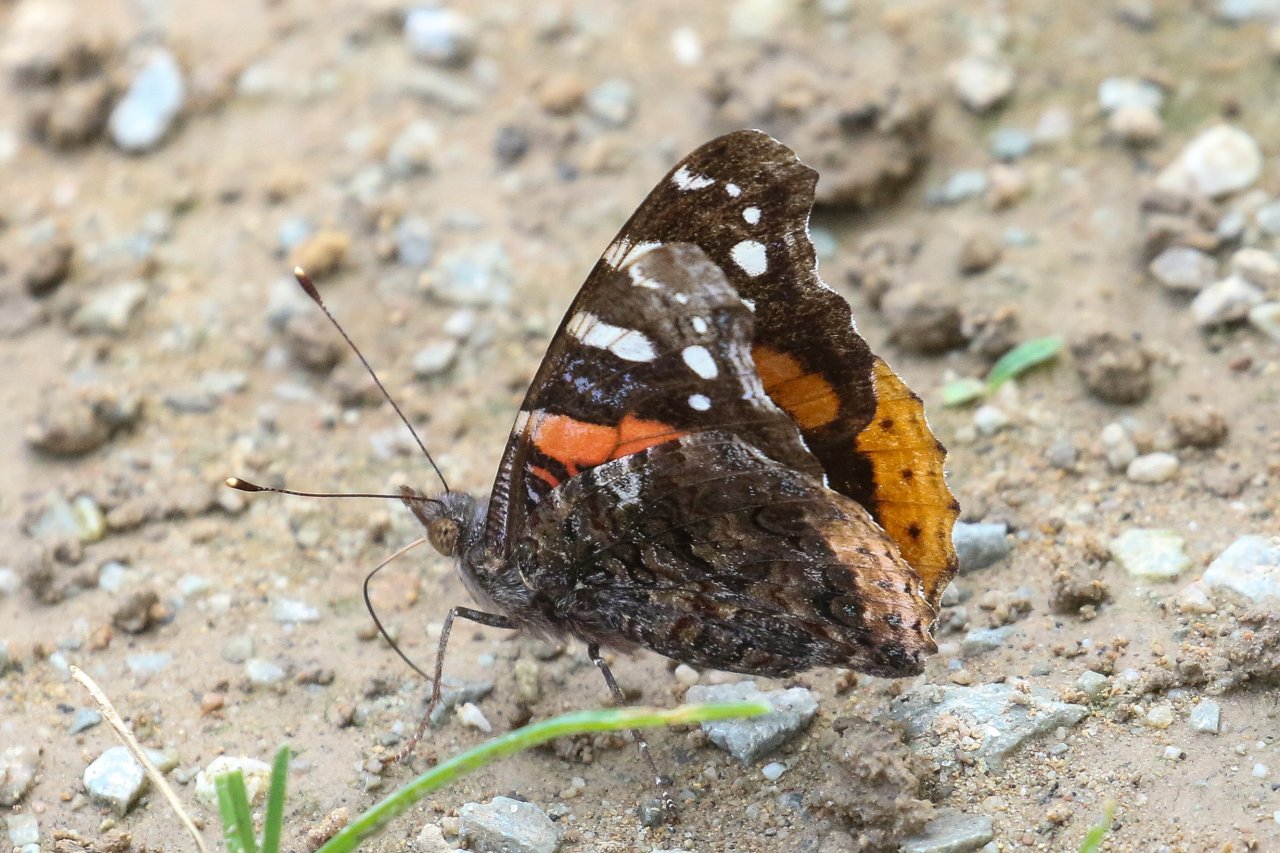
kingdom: Animalia
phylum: Arthropoda
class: Insecta
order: Lepidoptera
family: Nymphalidae
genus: Vanessa
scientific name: Vanessa atalanta
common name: Red Admiral
